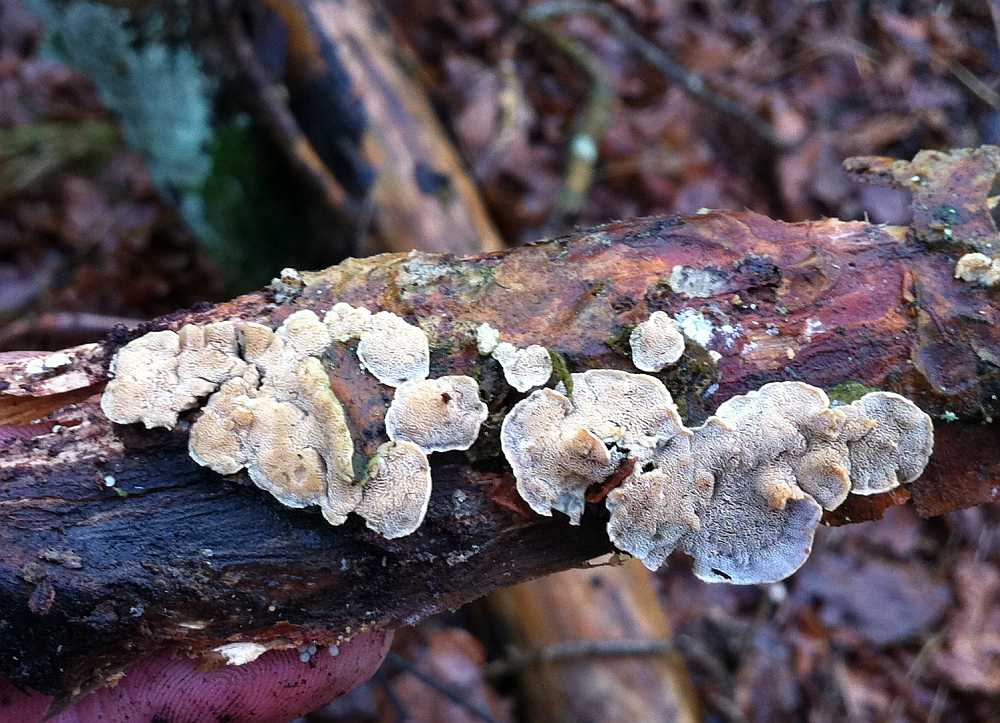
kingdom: Fungi
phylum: Basidiomycota
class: Agaricomycetes
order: Polyporales
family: Incrustoporiaceae
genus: Skeletocutis
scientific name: Skeletocutis carneogrisea
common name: rødgrå krystalporesvamp
